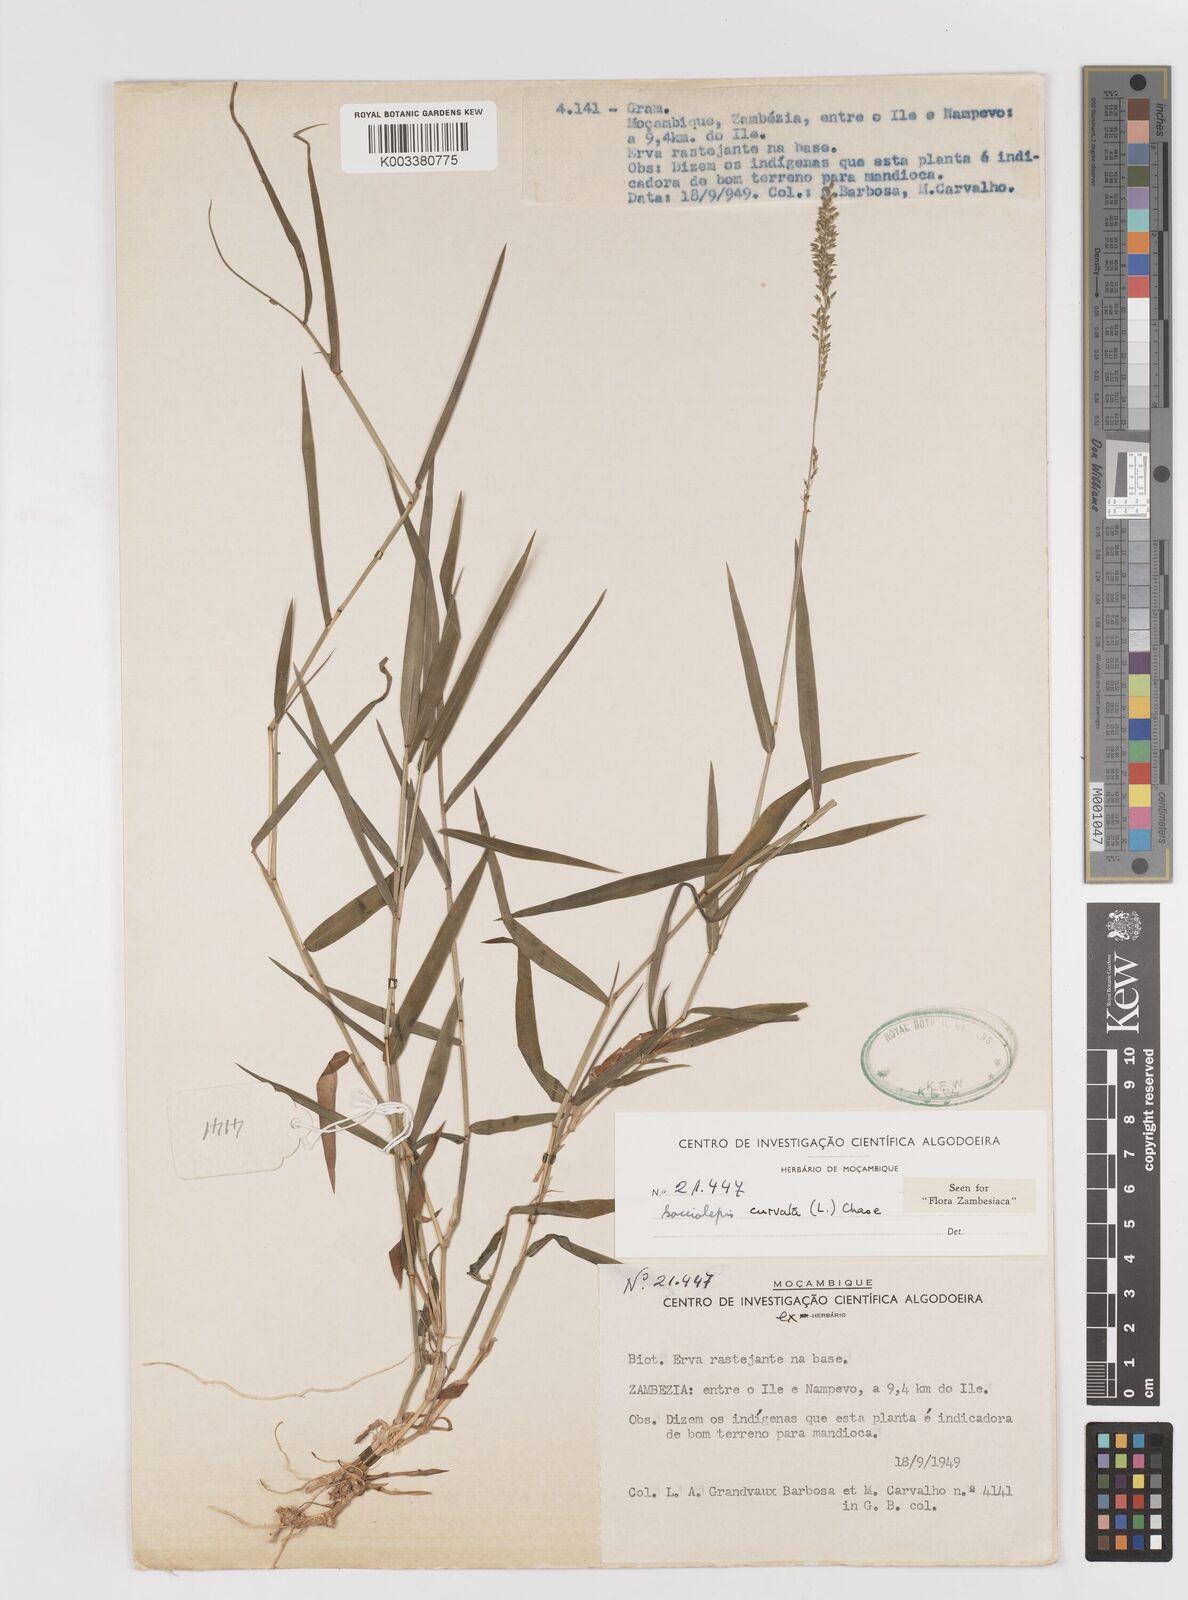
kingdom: Plantae
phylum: Tracheophyta
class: Liliopsida
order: Poales
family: Poaceae
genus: Sacciolepis
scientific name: Sacciolepis curvata
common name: Forest hood grass
